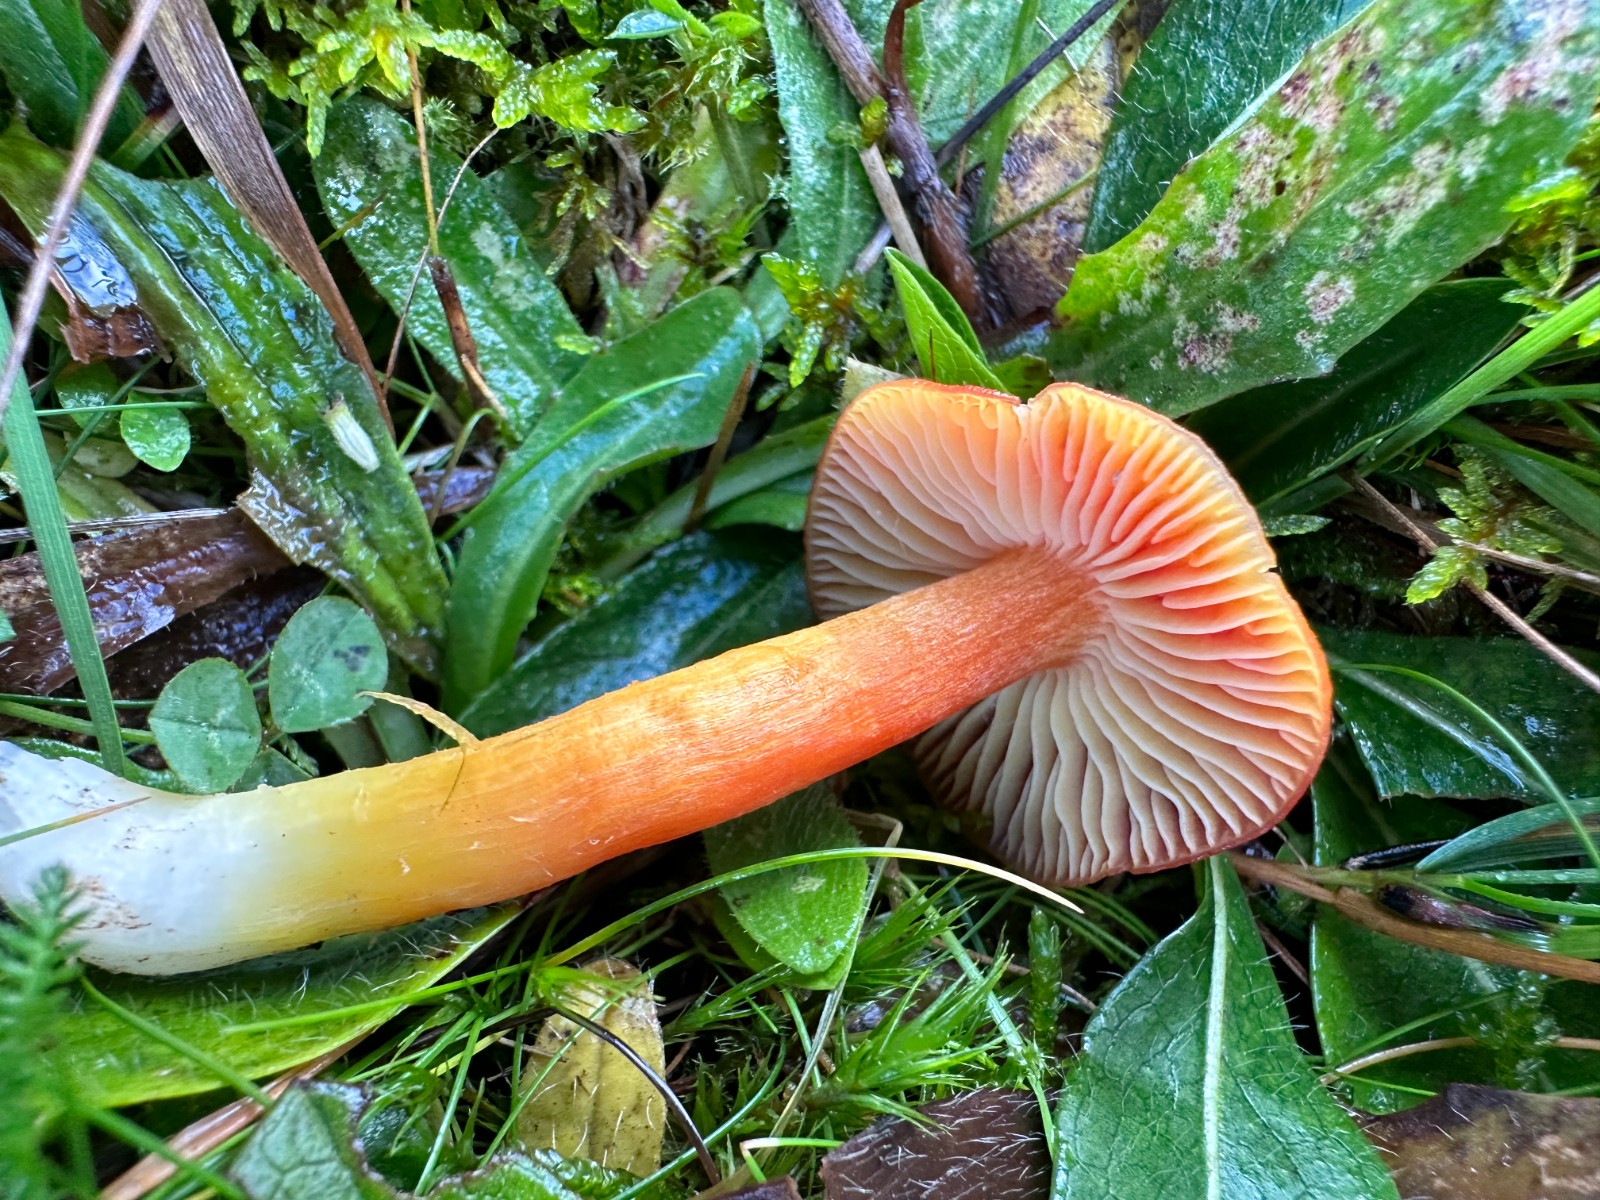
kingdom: Fungi
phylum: Basidiomycota
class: Agaricomycetes
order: Agaricales
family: Hygrophoraceae
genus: Hygrocybe
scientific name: Hygrocybe punicea
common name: skarlagen-vokshat
